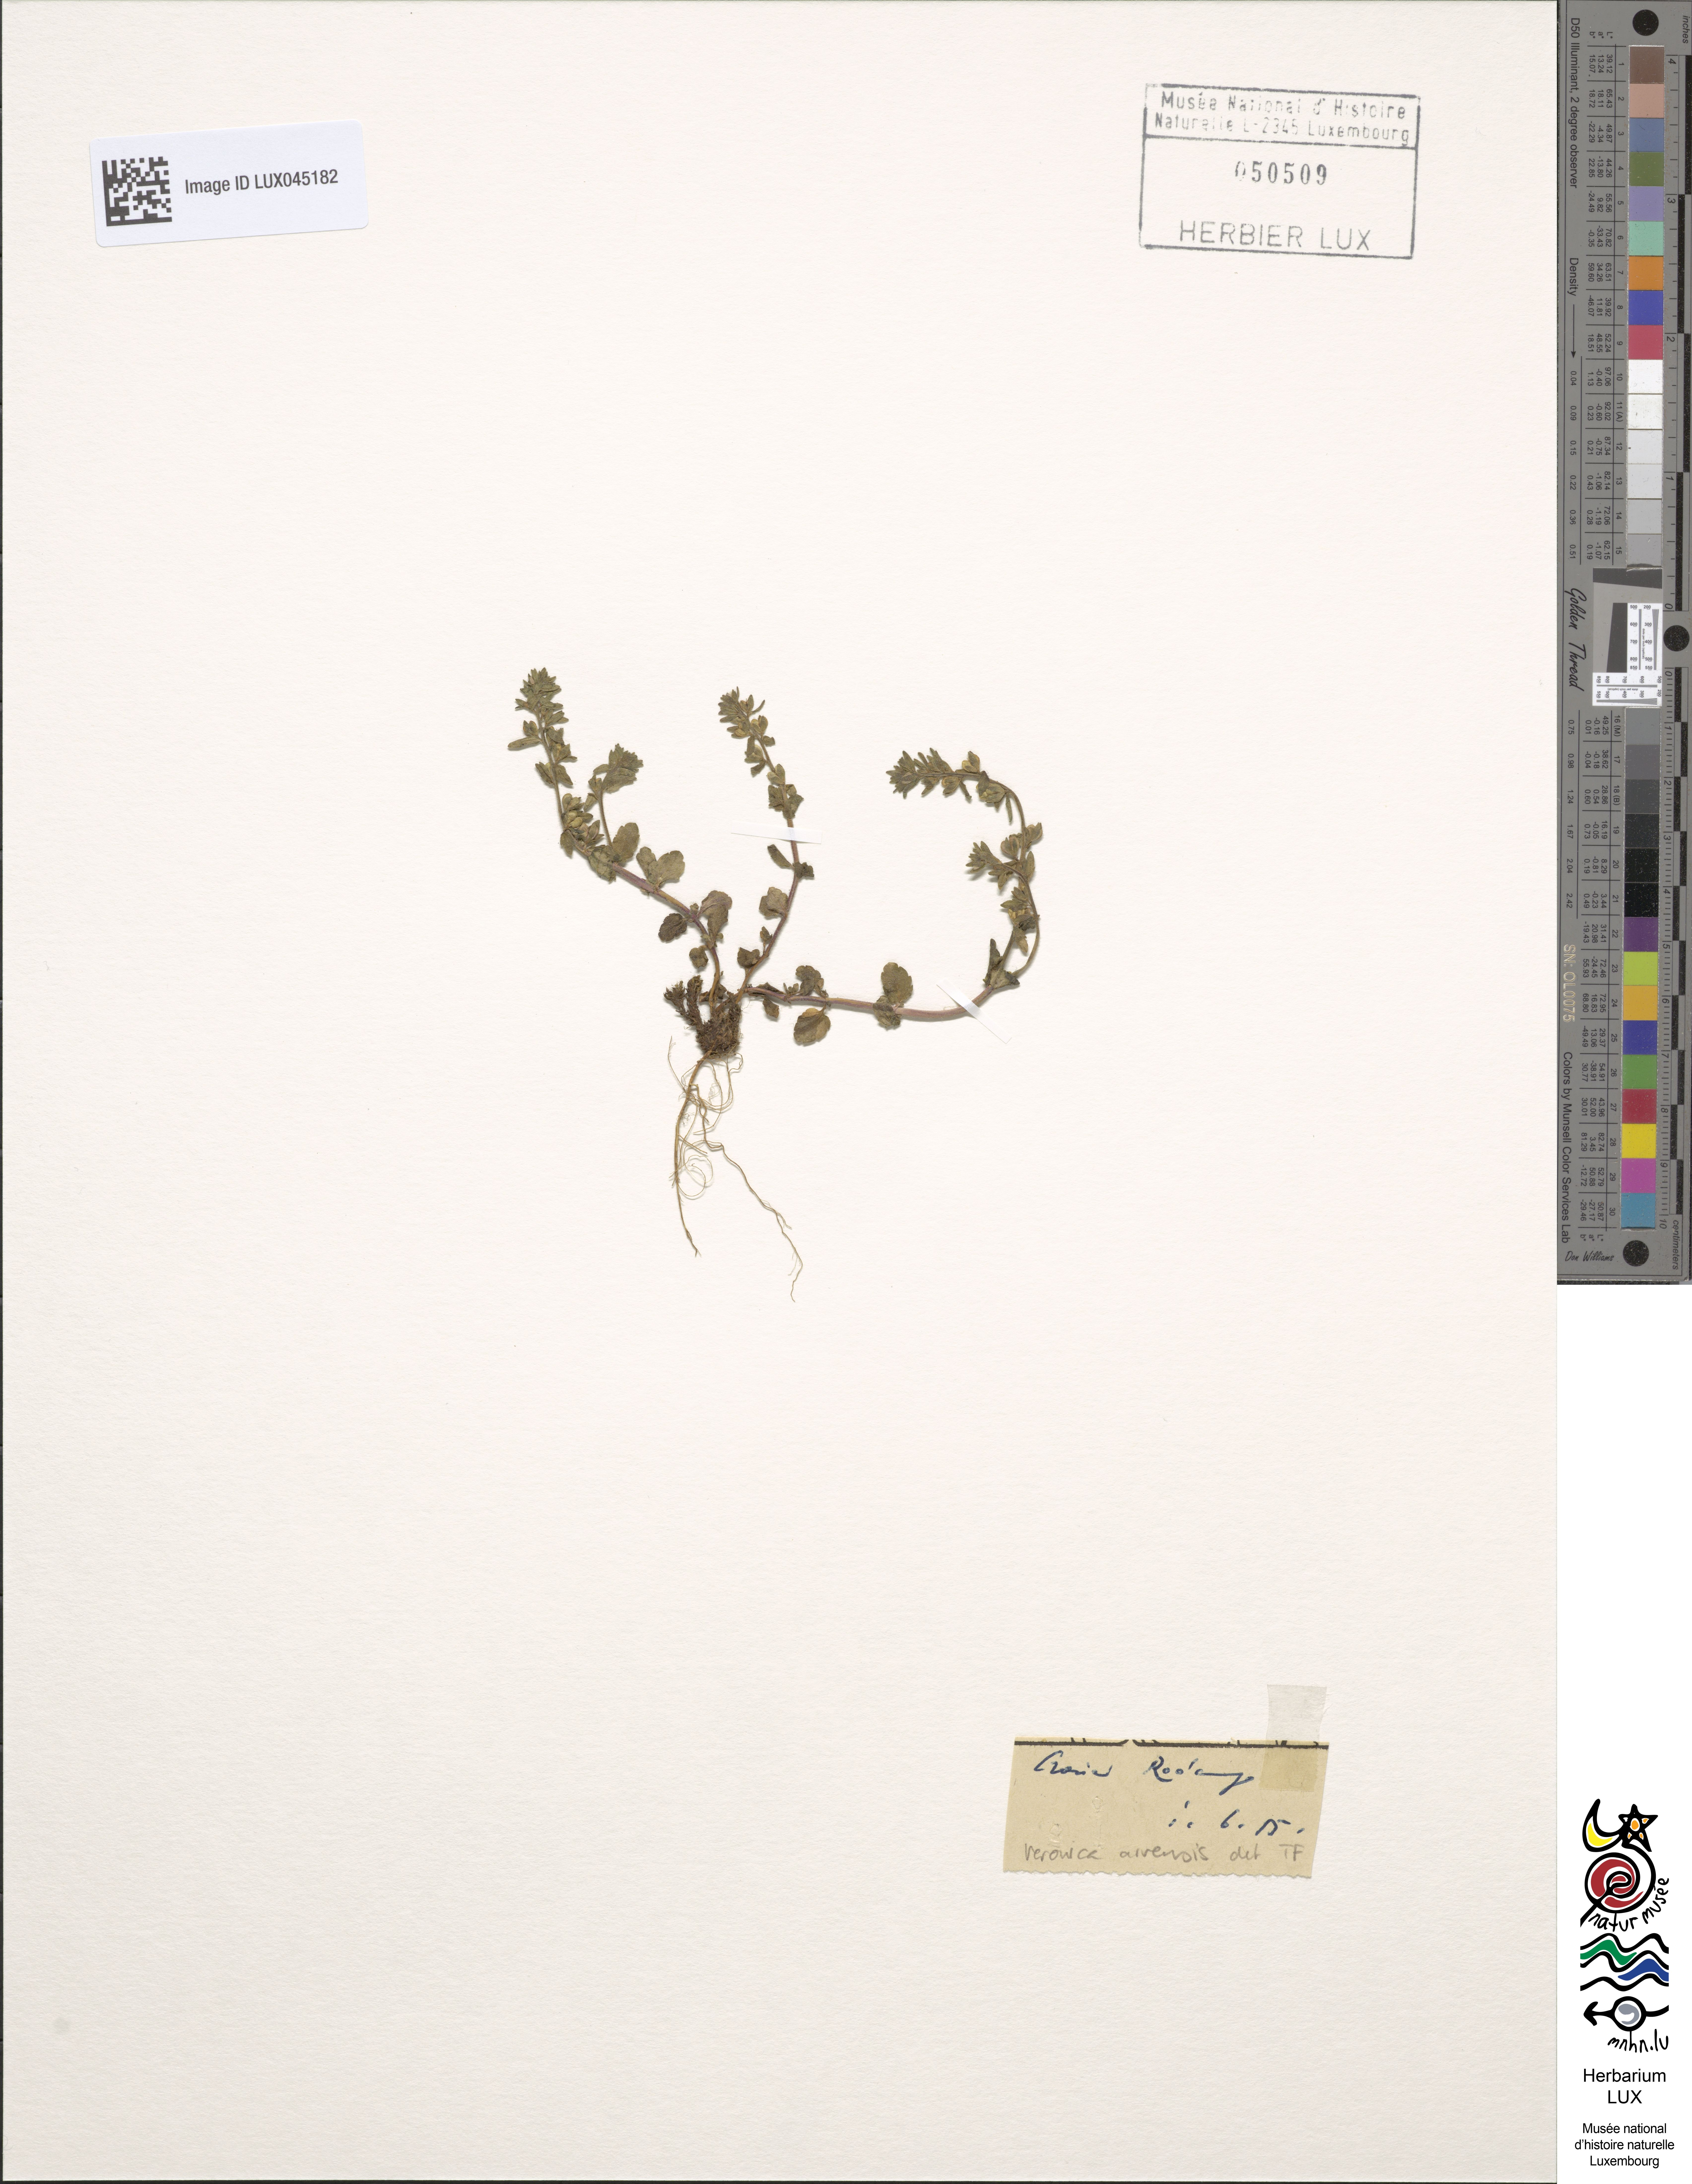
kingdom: Plantae
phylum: Tracheophyta
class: Magnoliopsida
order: Lamiales
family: Plantaginaceae
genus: Veronica
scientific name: Veronica arvensis
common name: Corn speedwell
